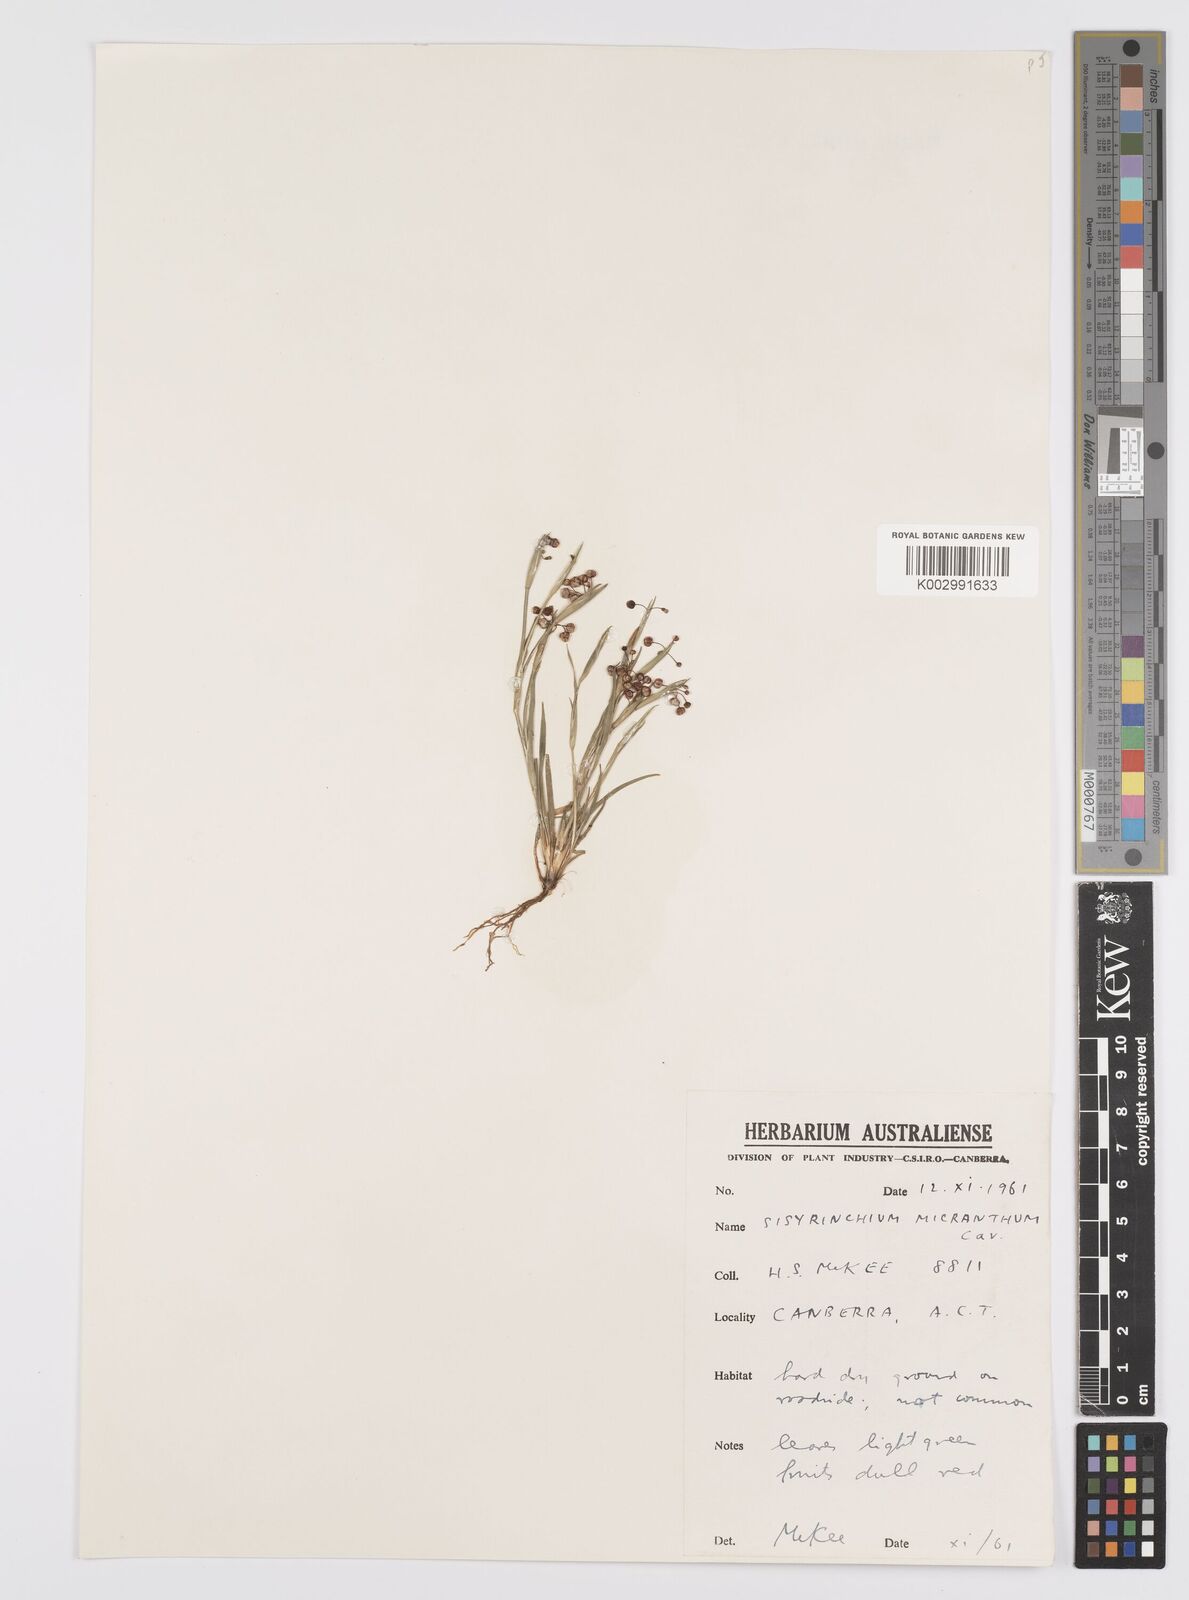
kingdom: Plantae
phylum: Tracheophyta
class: Liliopsida
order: Asparagales
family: Iridaceae
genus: Sisyrinchium
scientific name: Sisyrinchium micranthum
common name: Bermuda pigroot
